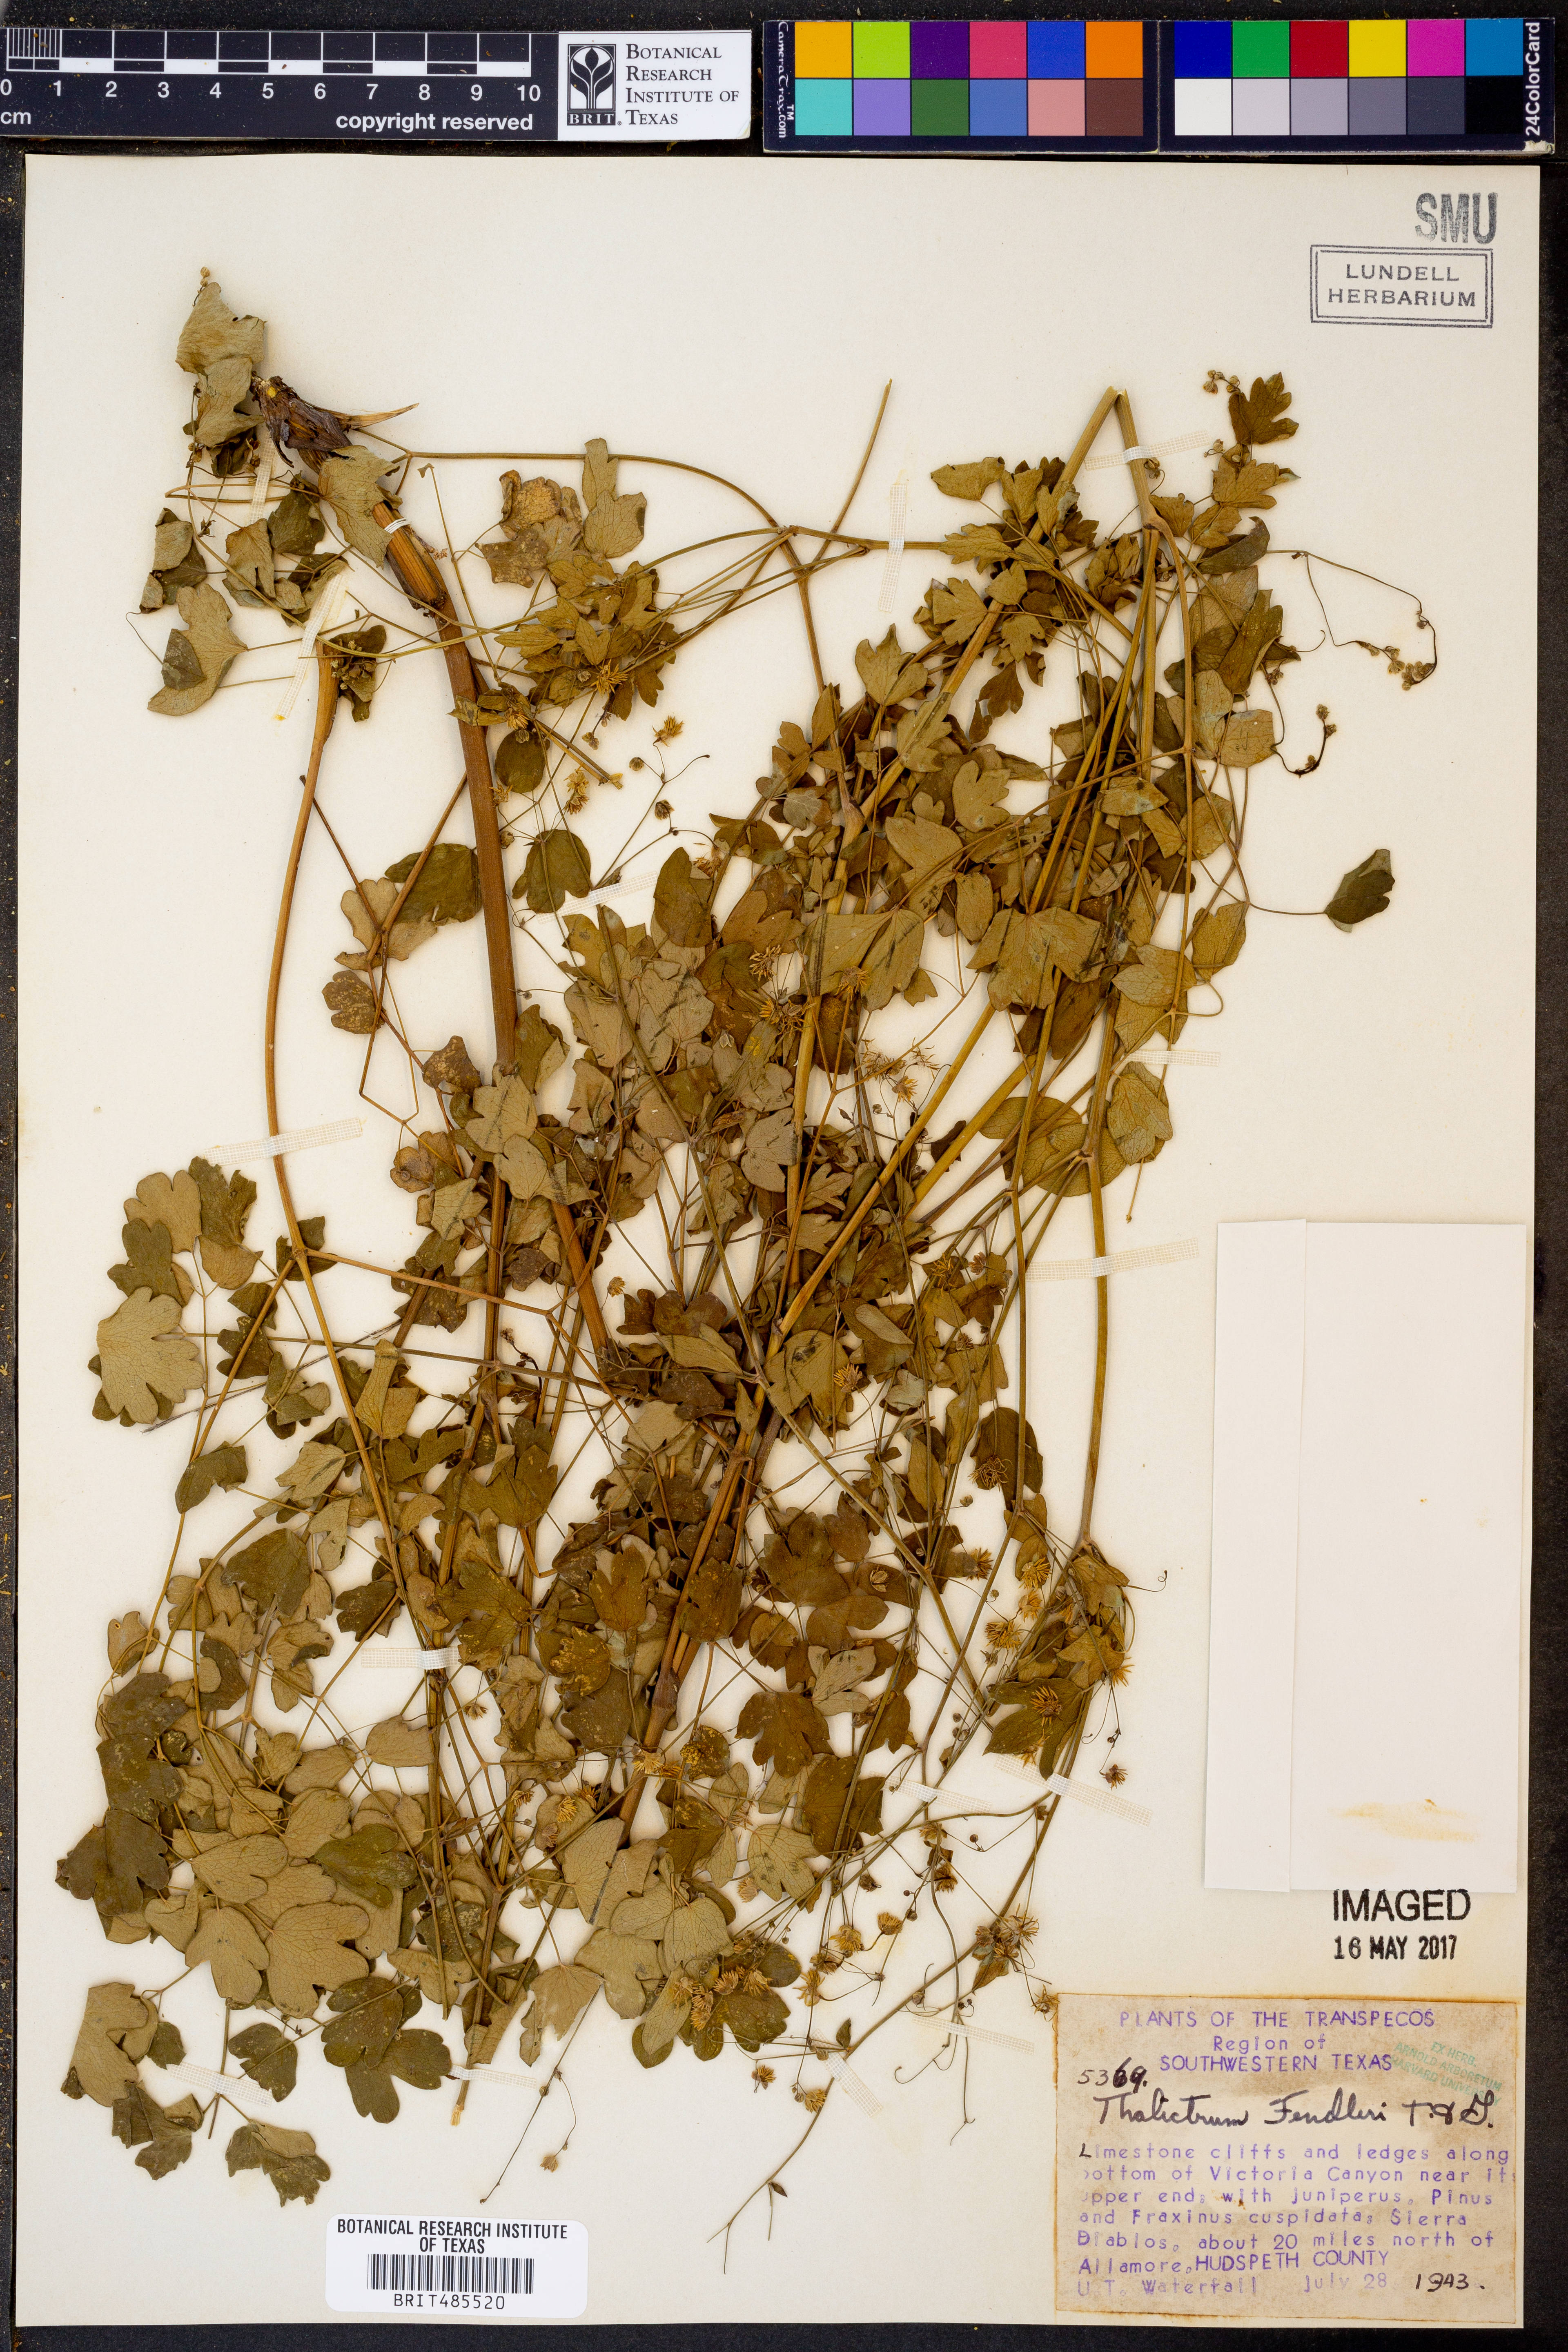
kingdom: Plantae
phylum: Tracheophyta
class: Magnoliopsida
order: Ranunculales
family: Ranunculaceae
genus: Thalictrum
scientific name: Thalictrum fendleri
